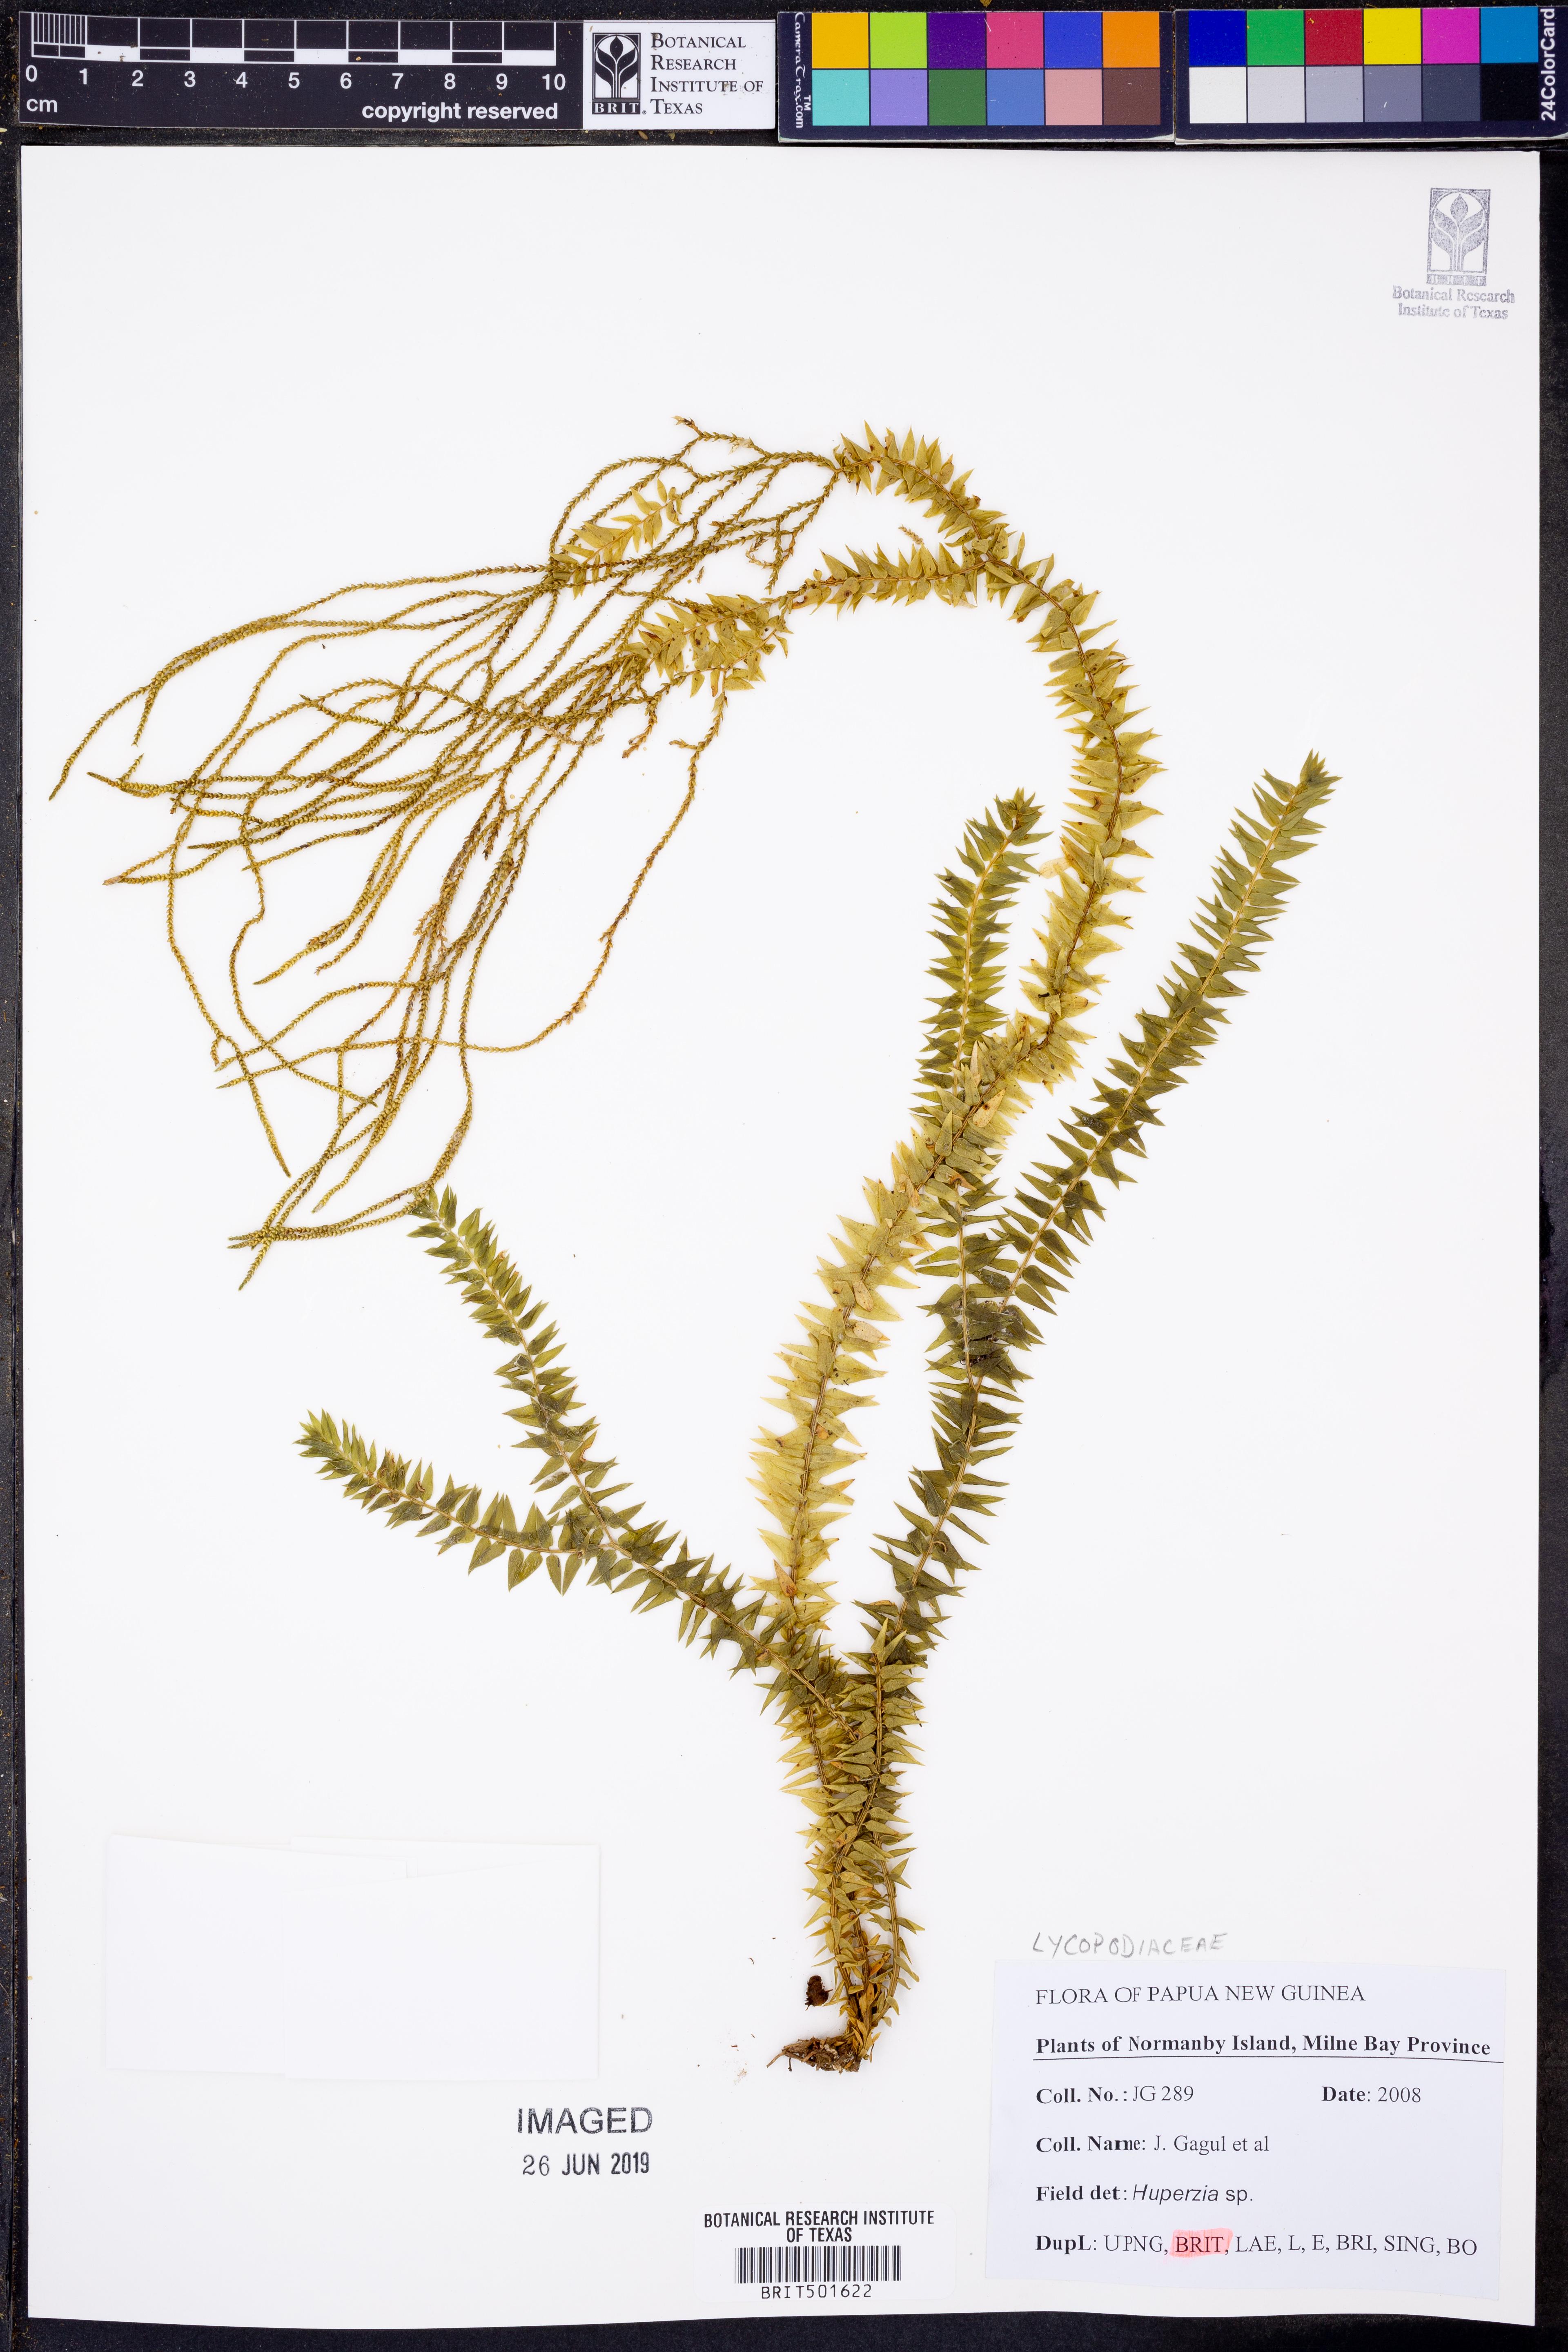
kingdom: Plantae
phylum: Tracheophyta
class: Lycopodiopsida
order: Lycopodiales
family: Lycopodiaceae
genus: Huperzia
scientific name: Huperzia
